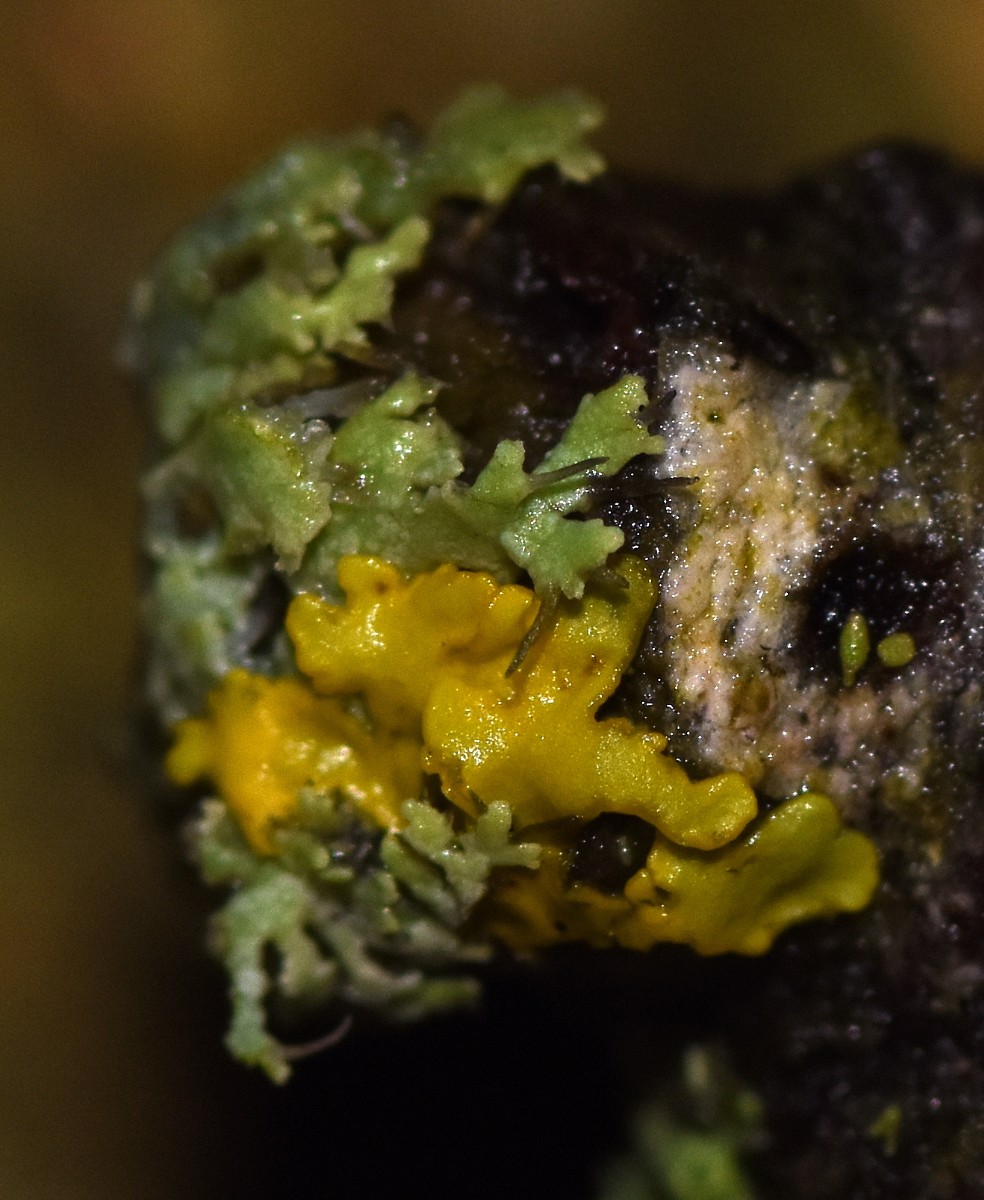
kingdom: Fungi
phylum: Ascomycota
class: Lecanoromycetes
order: Teloschistales
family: Teloschistaceae
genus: Xanthoria
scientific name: Xanthoria parietina
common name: almindelig væggelav
